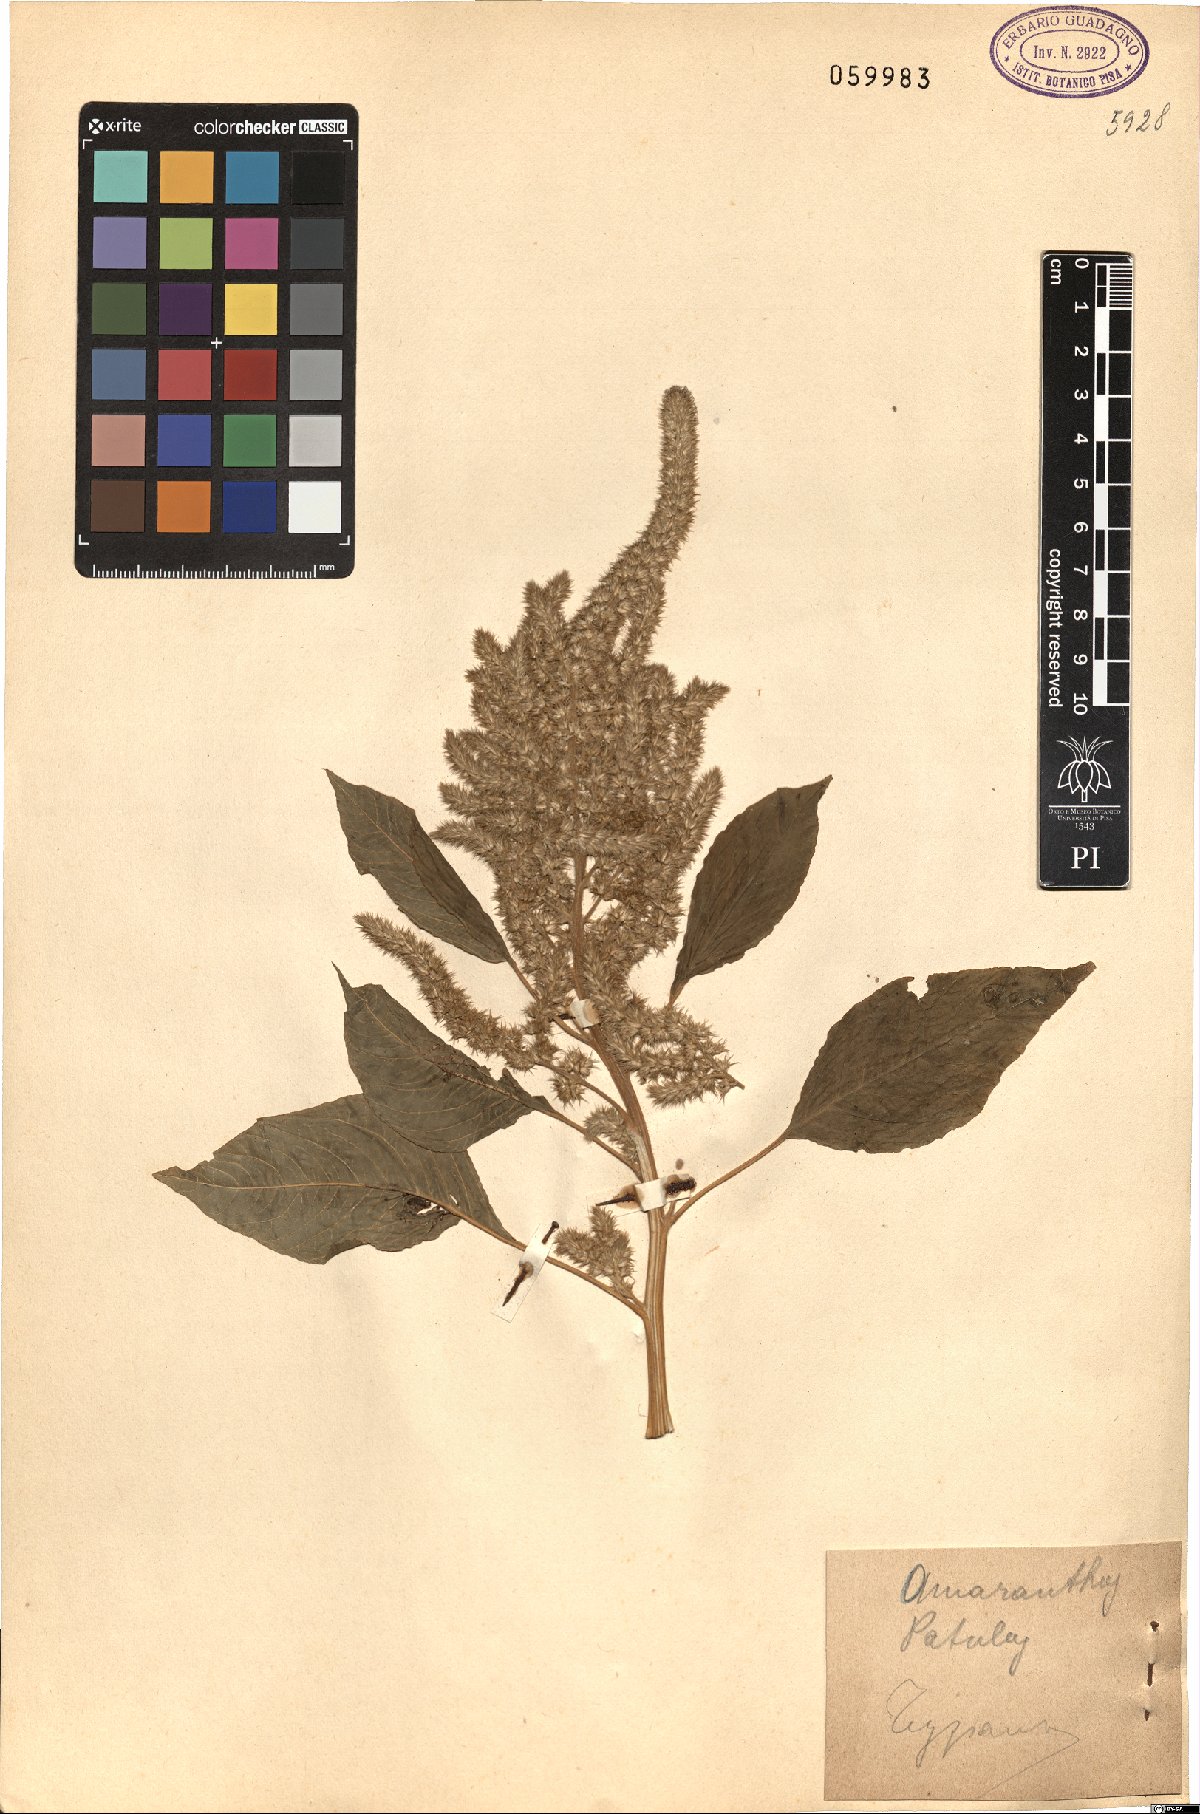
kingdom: Plantae
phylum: Tracheophyta
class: Magnoliopsida
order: Caryophyllales
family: Amaranthaceae
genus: Amaranthus
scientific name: Amaranthus hybridus
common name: Green amaranth
